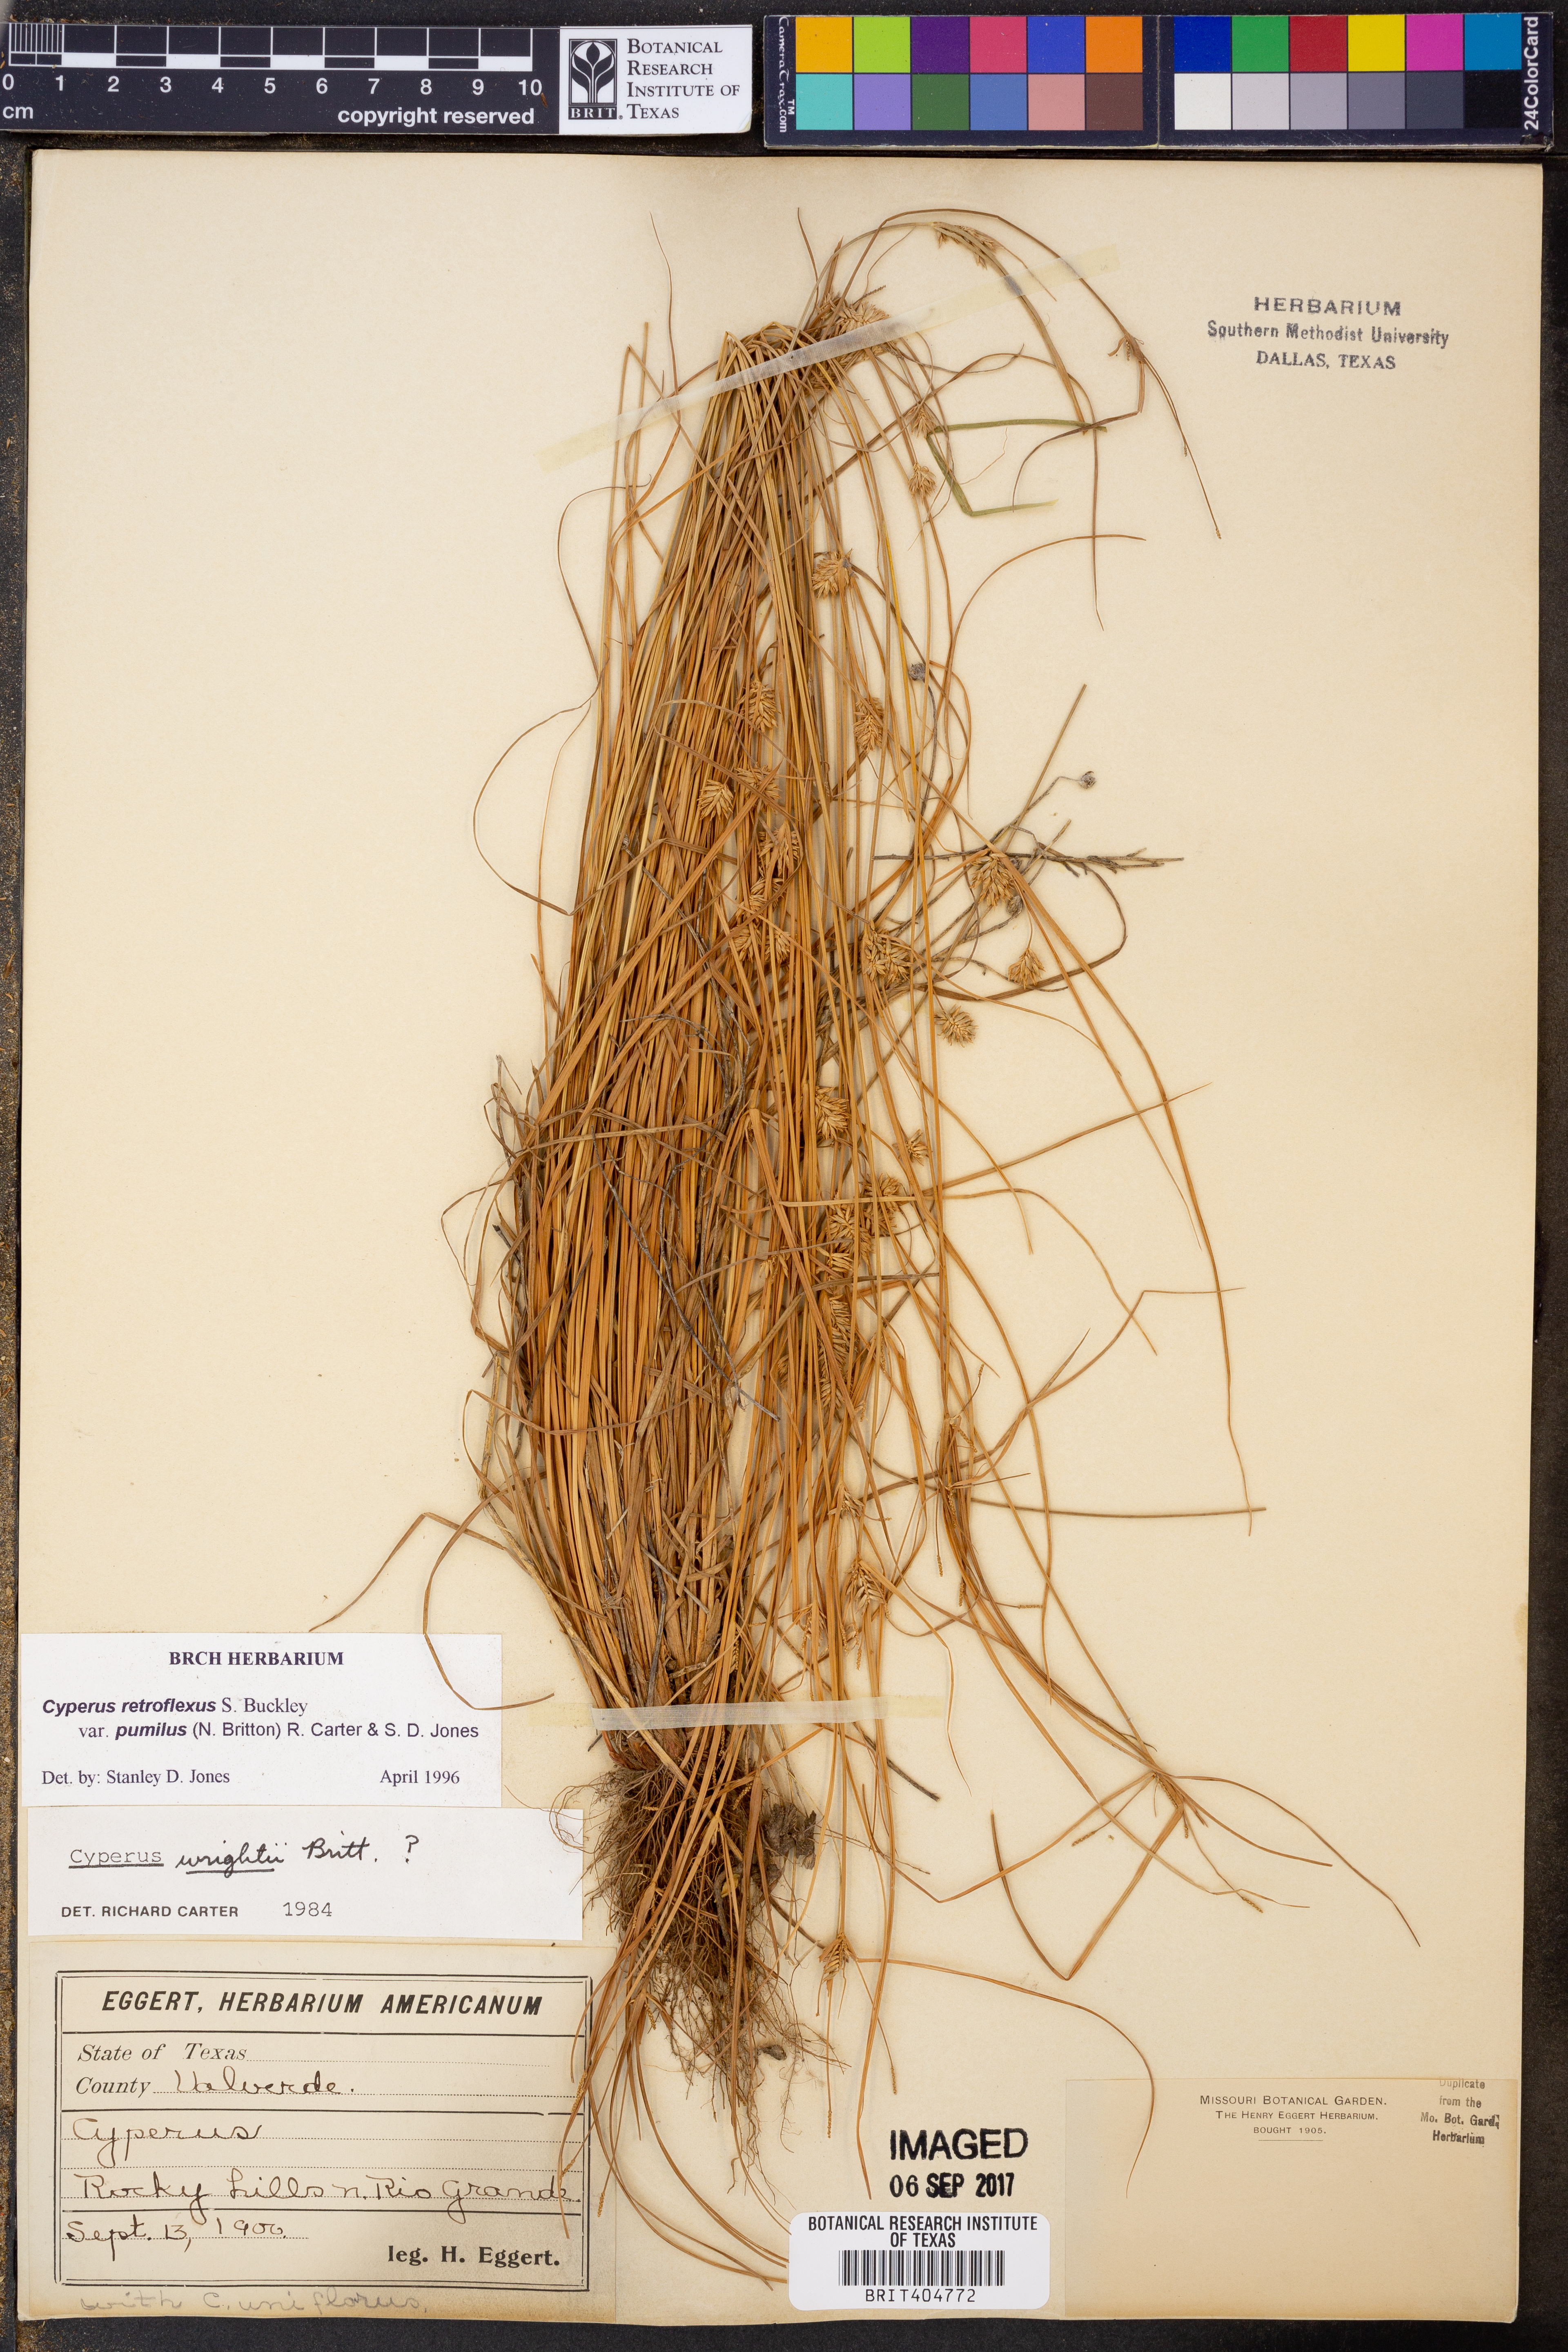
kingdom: Plantae
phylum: Tracheophyta
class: Liliopsida
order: Poales
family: Cyperaceae
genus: Cyperus
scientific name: Cyperus retroflexus
